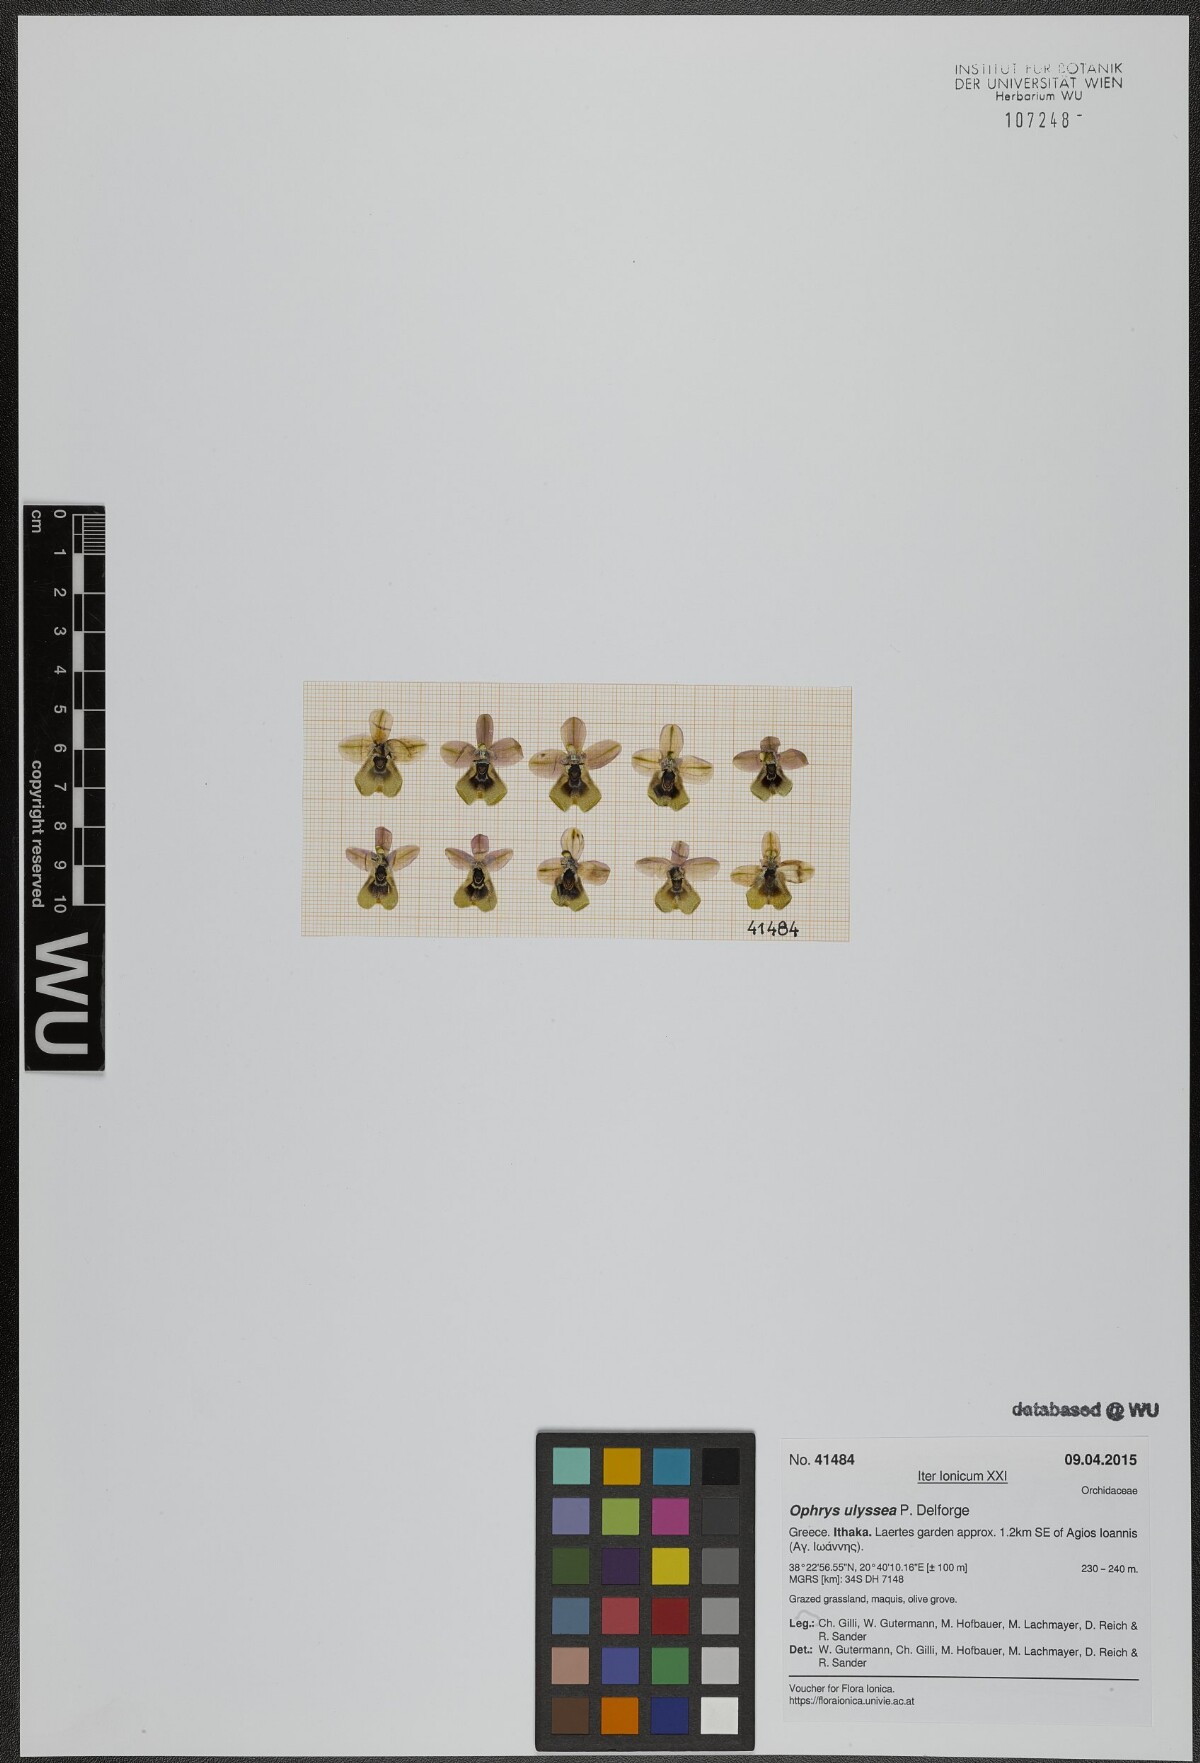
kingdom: Plantae
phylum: Tracheophyta
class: Liliopsida
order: Asparagales
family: Orchidaceae
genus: Ophrys
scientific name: Ophrys tenthredinifera
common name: Sawfly orchid
